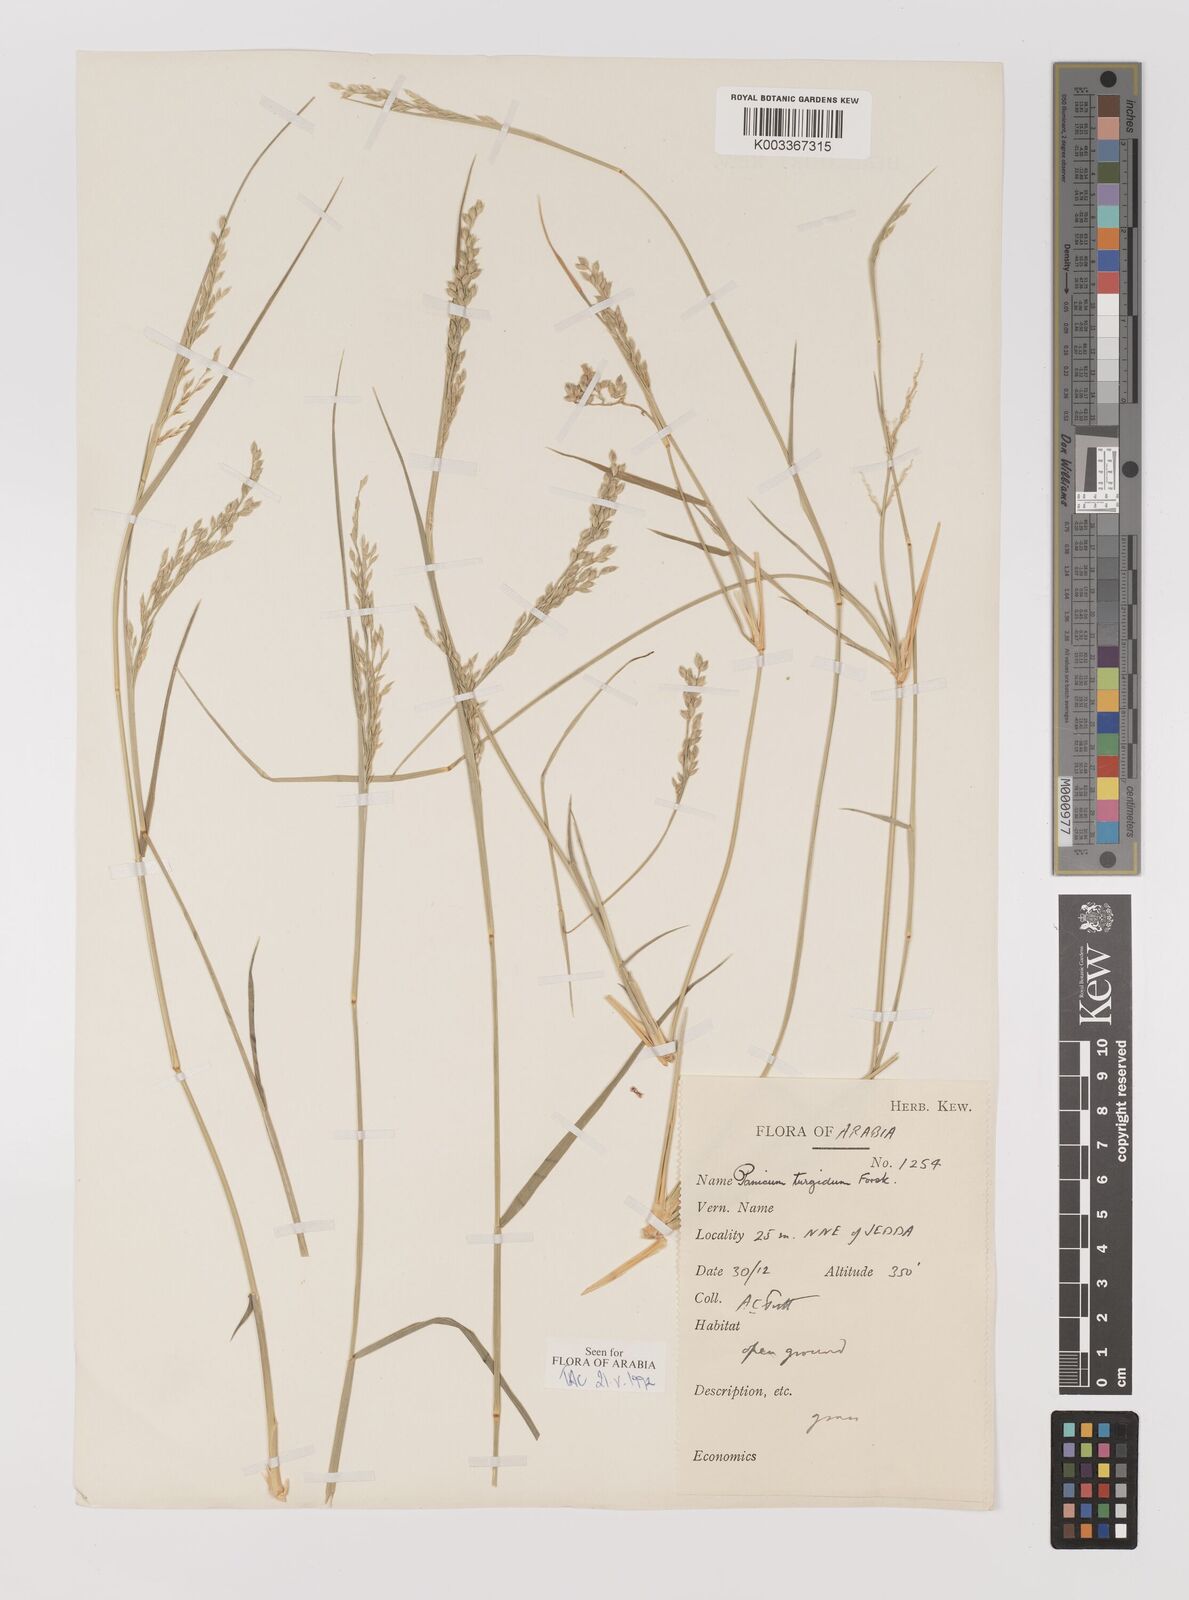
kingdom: Plantae
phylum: Tracheophyta
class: Liliopsida
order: Poales
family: Poaceae
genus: Panicum
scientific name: Panicum turgidum
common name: Desert grass
